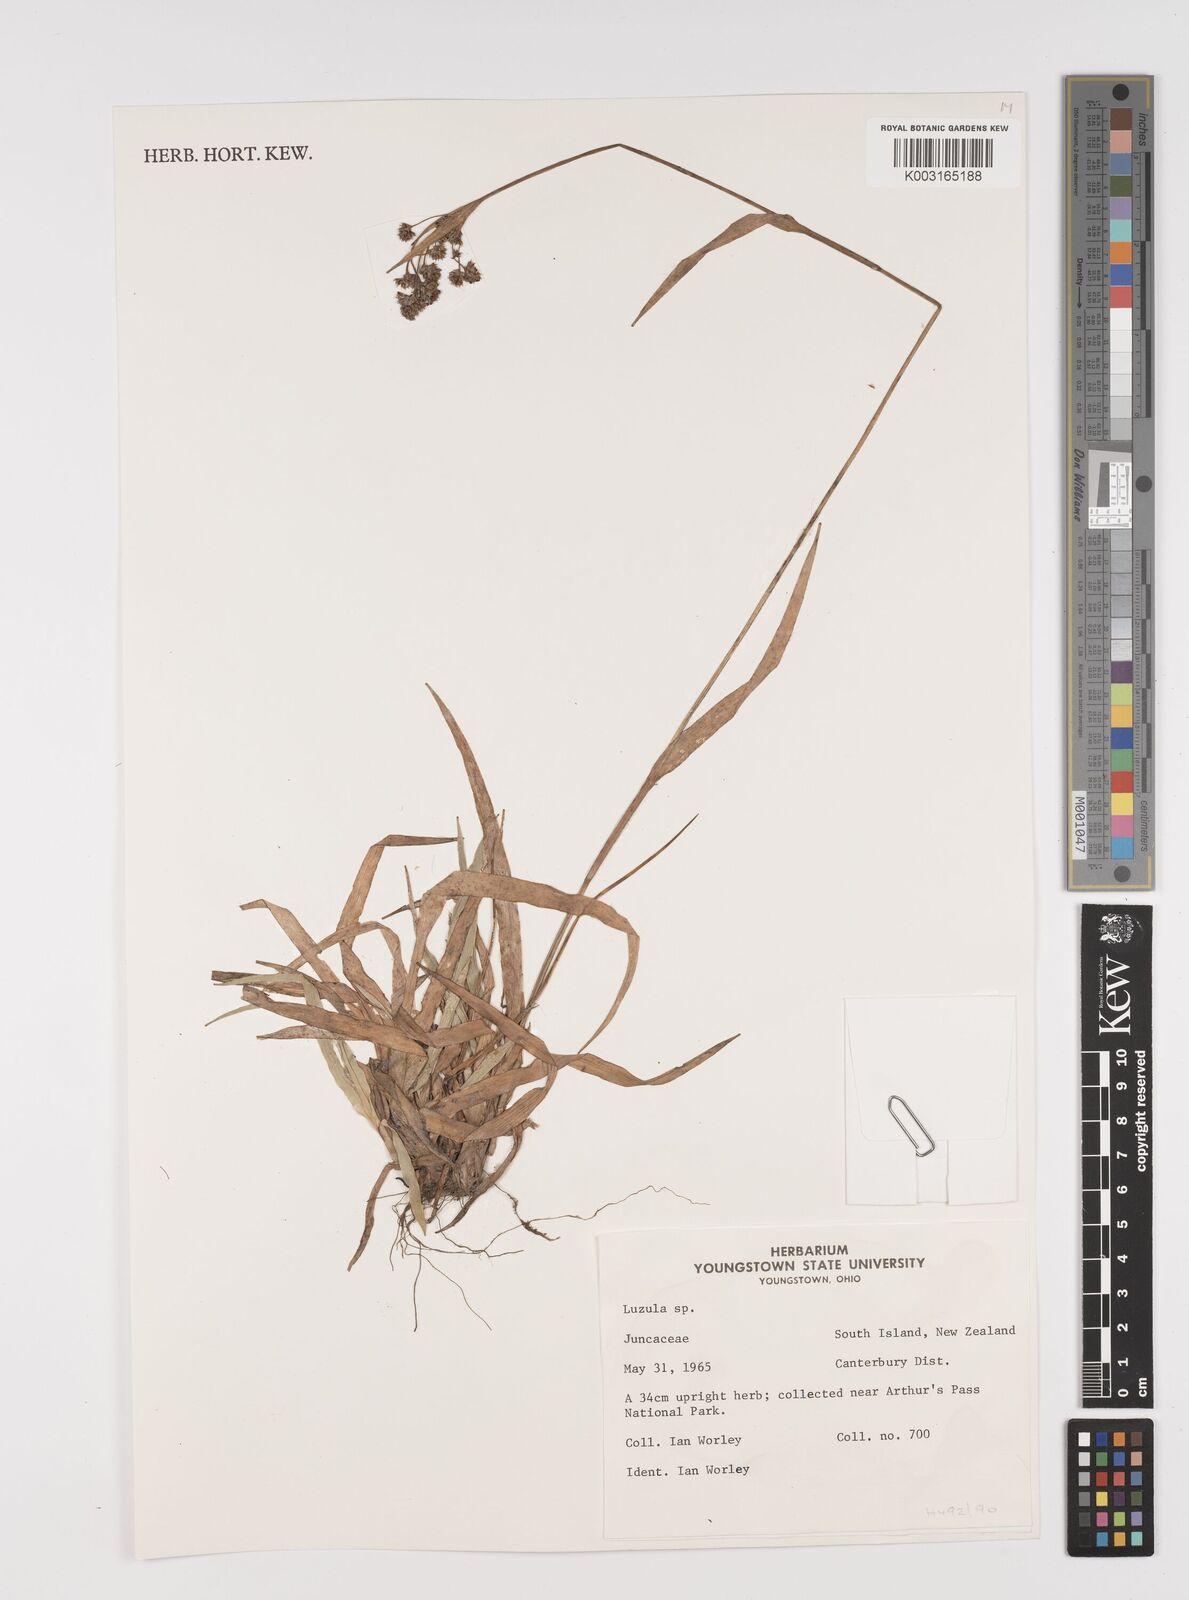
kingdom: Plantae
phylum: Tracheophyta
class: Liliopsida
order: Poales
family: Juncaceae
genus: Luzula
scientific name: Luzula
